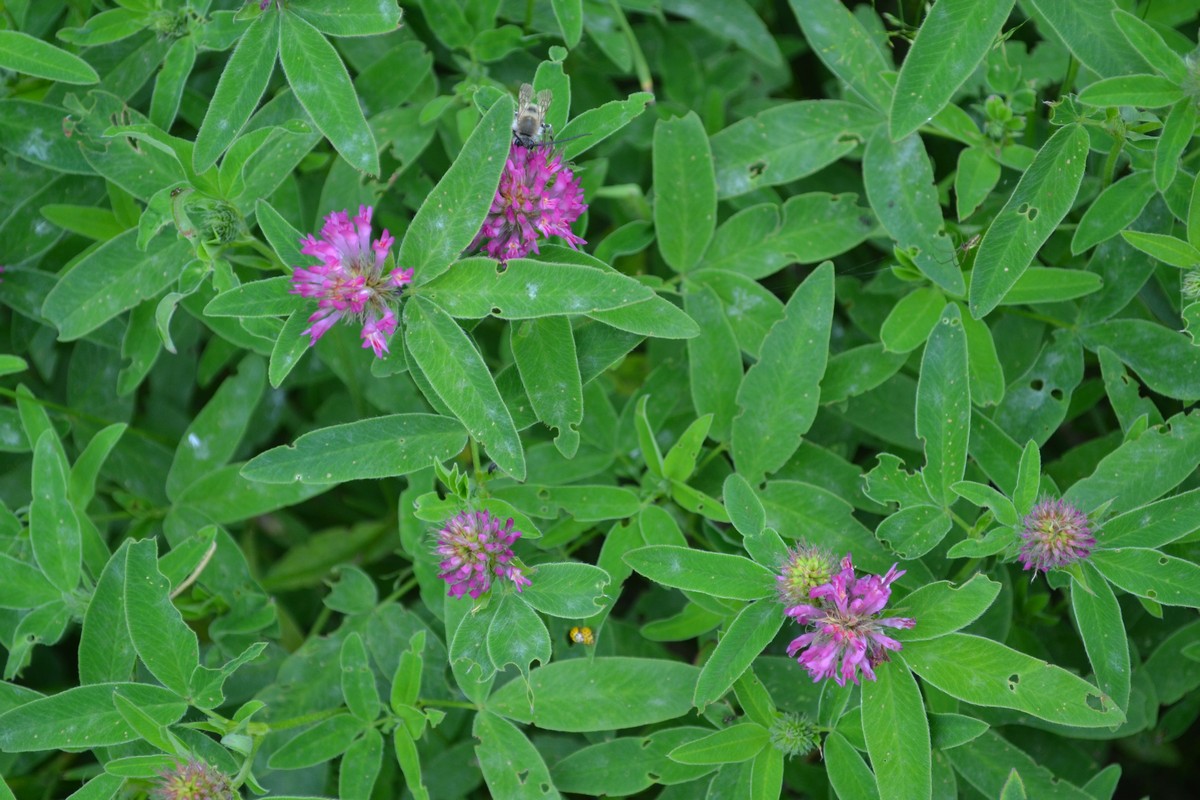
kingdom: Plantae
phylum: Tracheophyta
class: Magnoliopsida
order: Fabales
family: Fabaceae
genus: Trifolium
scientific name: Trifolium medium
